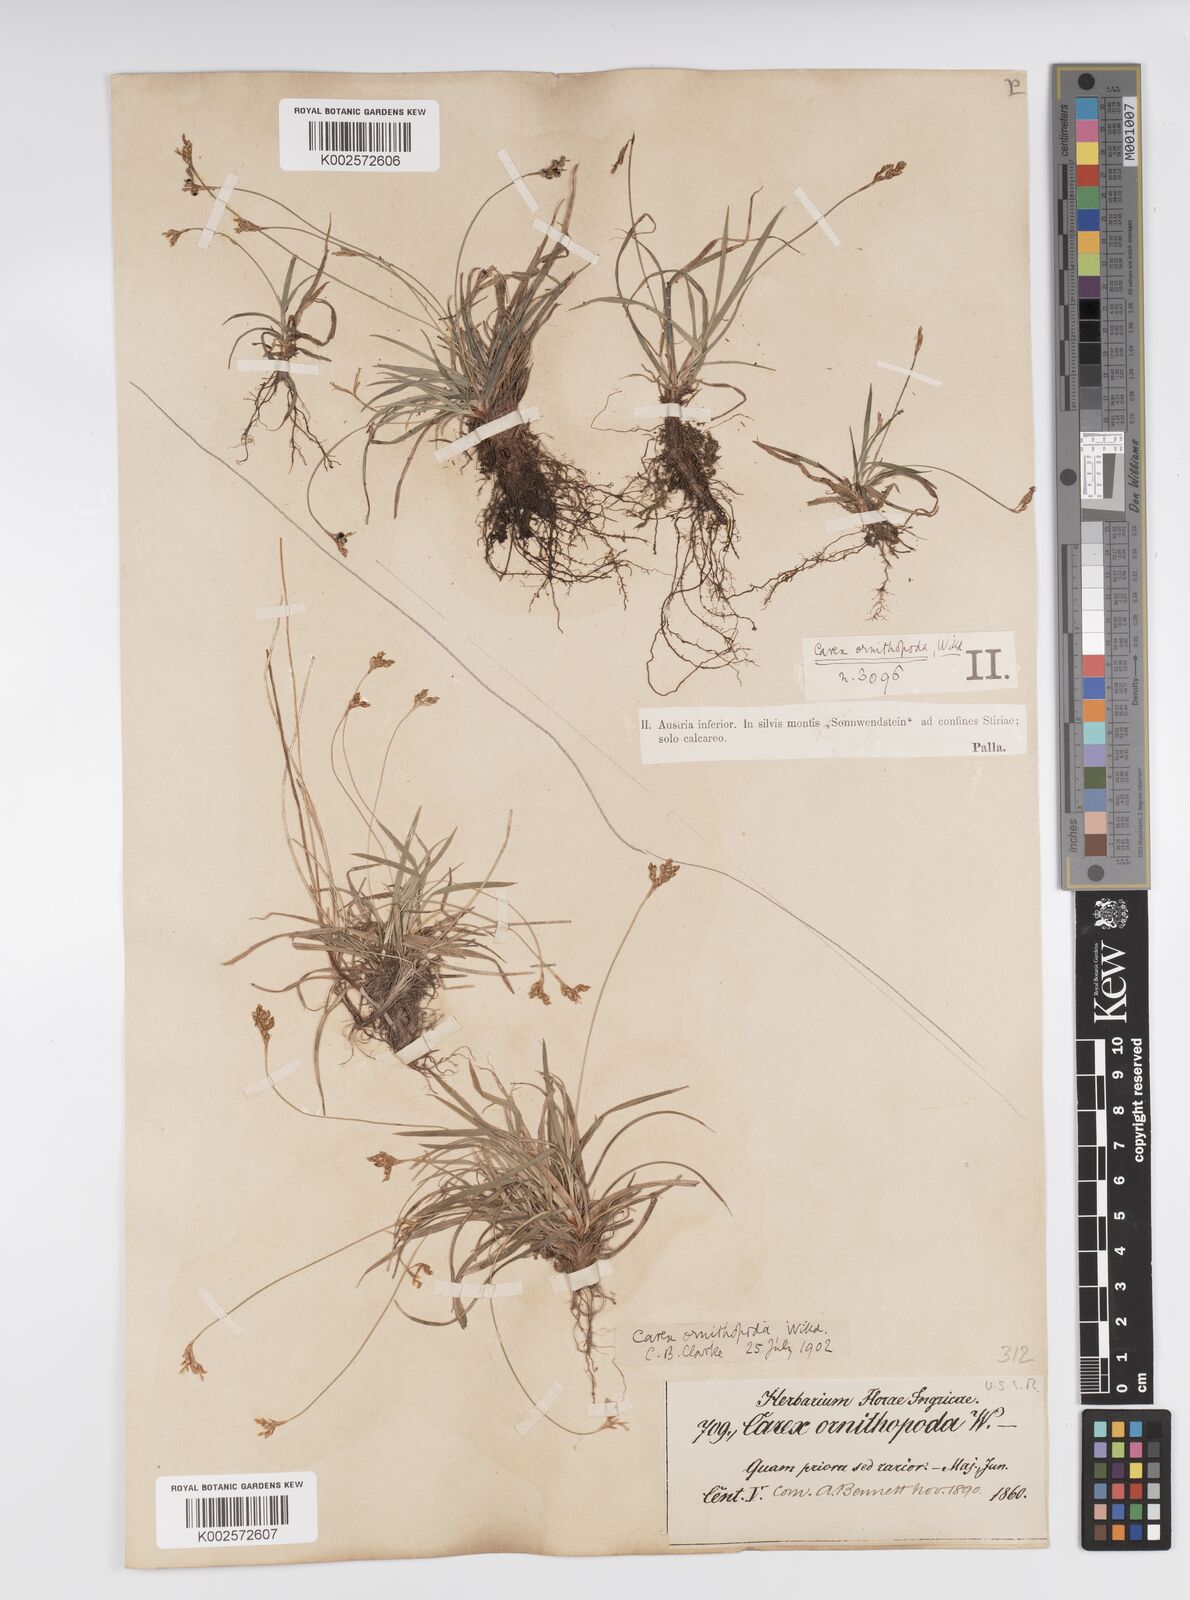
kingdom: Plantae
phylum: Tracheophyta
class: Liliopsida
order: Poales
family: Cyperaceae
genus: Carex
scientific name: Carex ornithopoda
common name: Bird's-foot sedge
